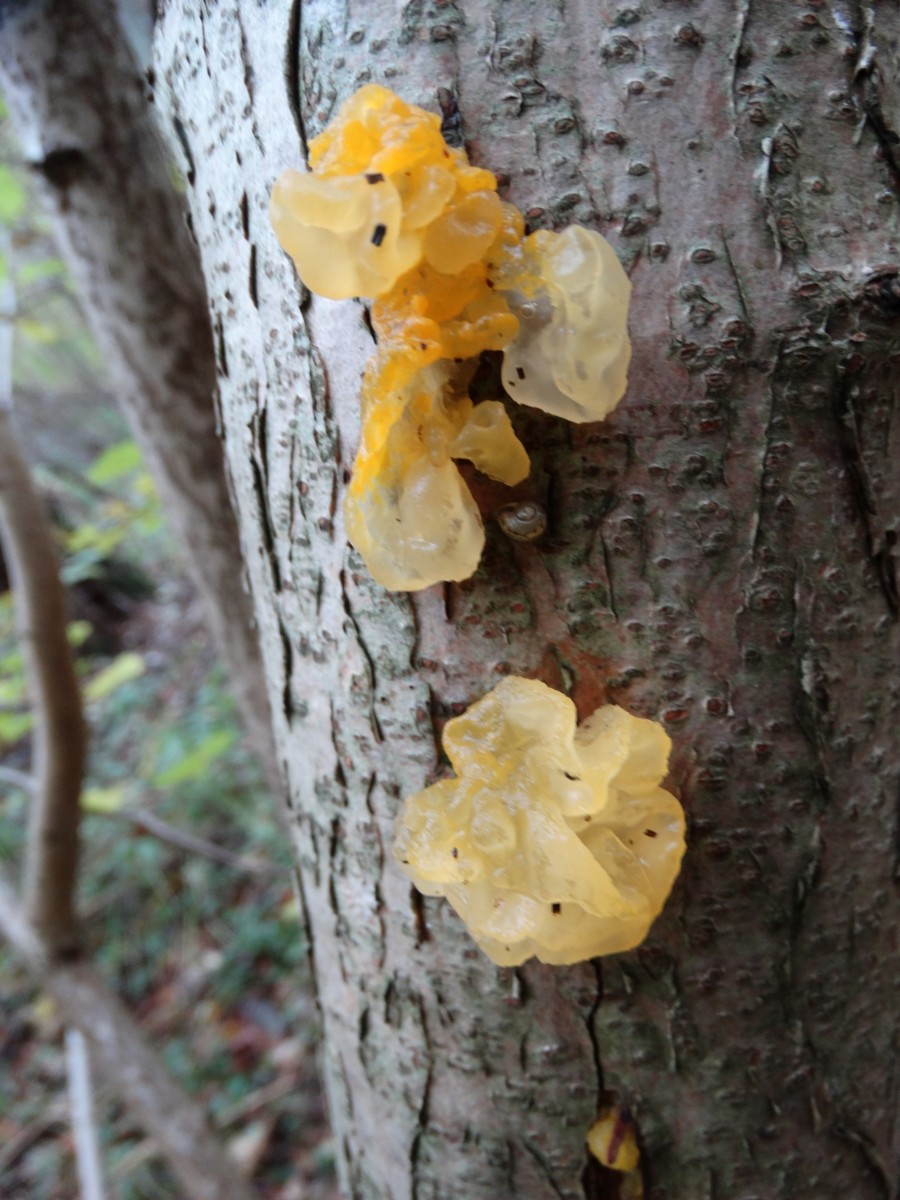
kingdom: Fungi
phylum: Basidiomycota
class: Tremellomycetes
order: Tremellales
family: Tremellaceae
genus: Tremella
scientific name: Tremella mesenterica
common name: gul bævresvamp
